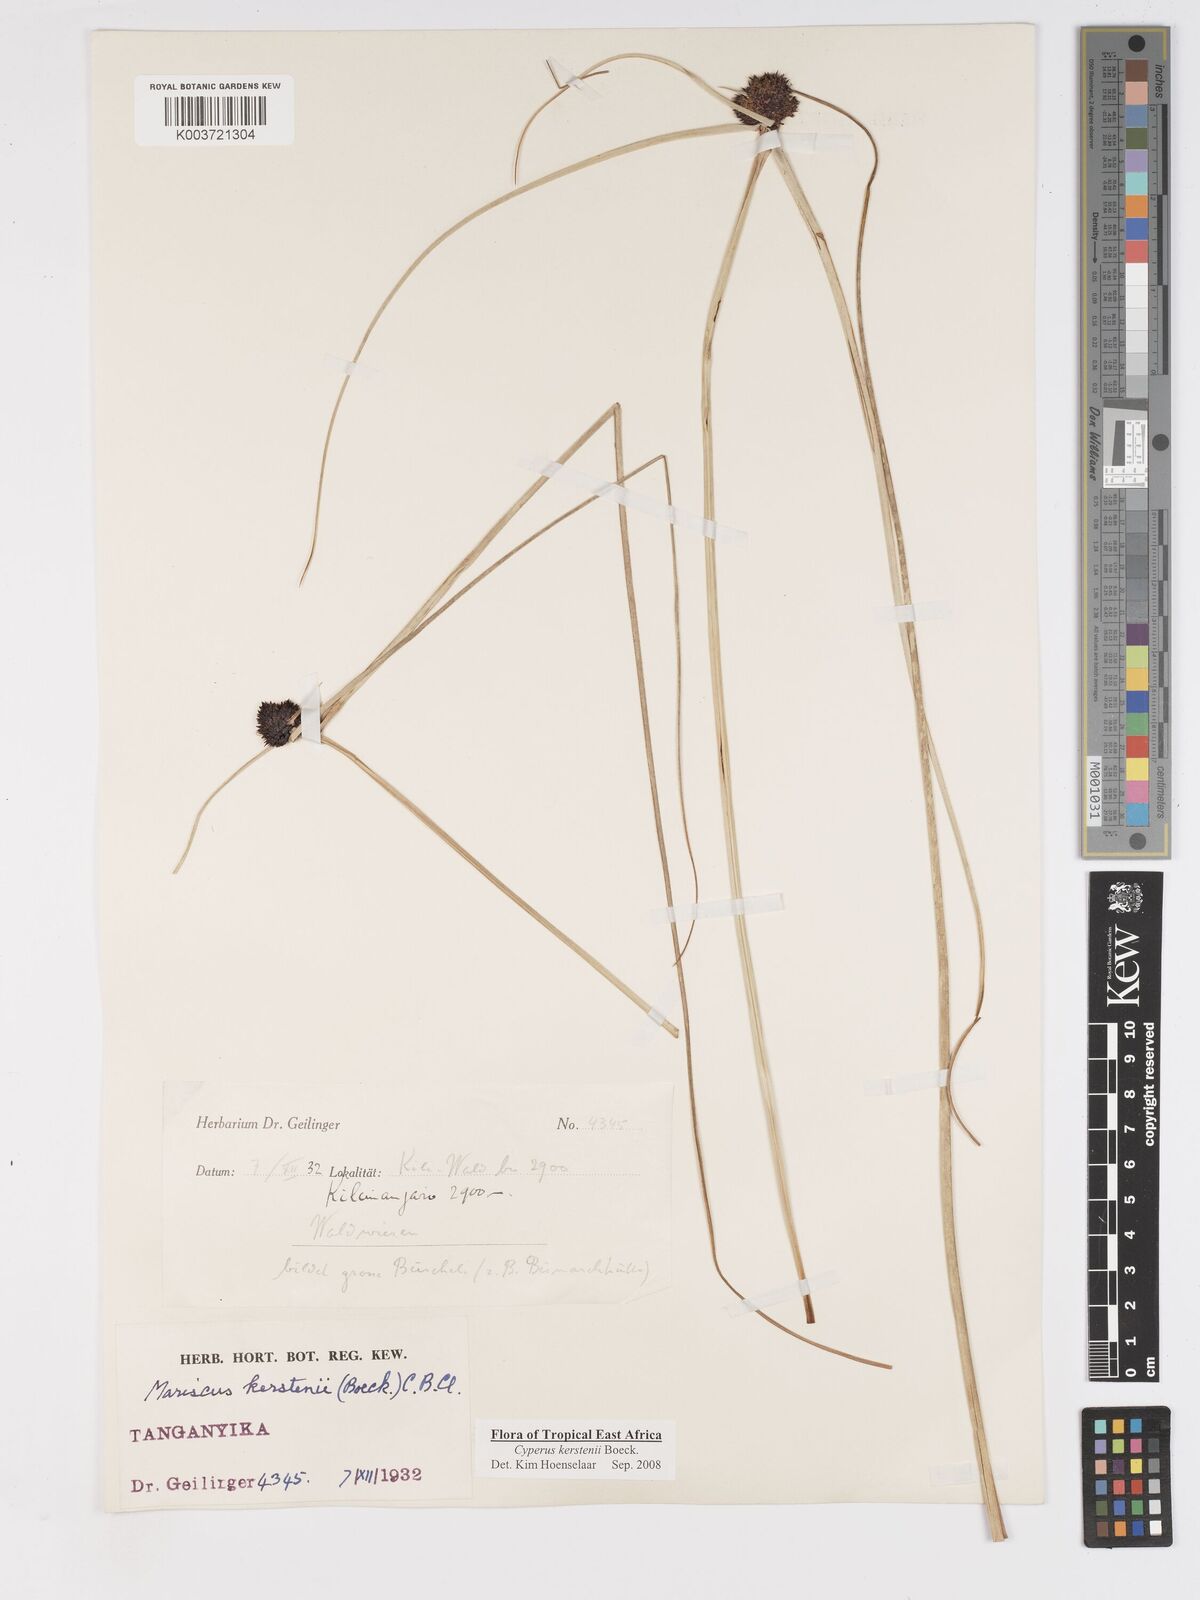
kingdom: Plantae
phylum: Tracheophyta
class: Liliopsida
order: Poales
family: Cyperaceae
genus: Cyperus
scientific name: Cyperus kerstenii
